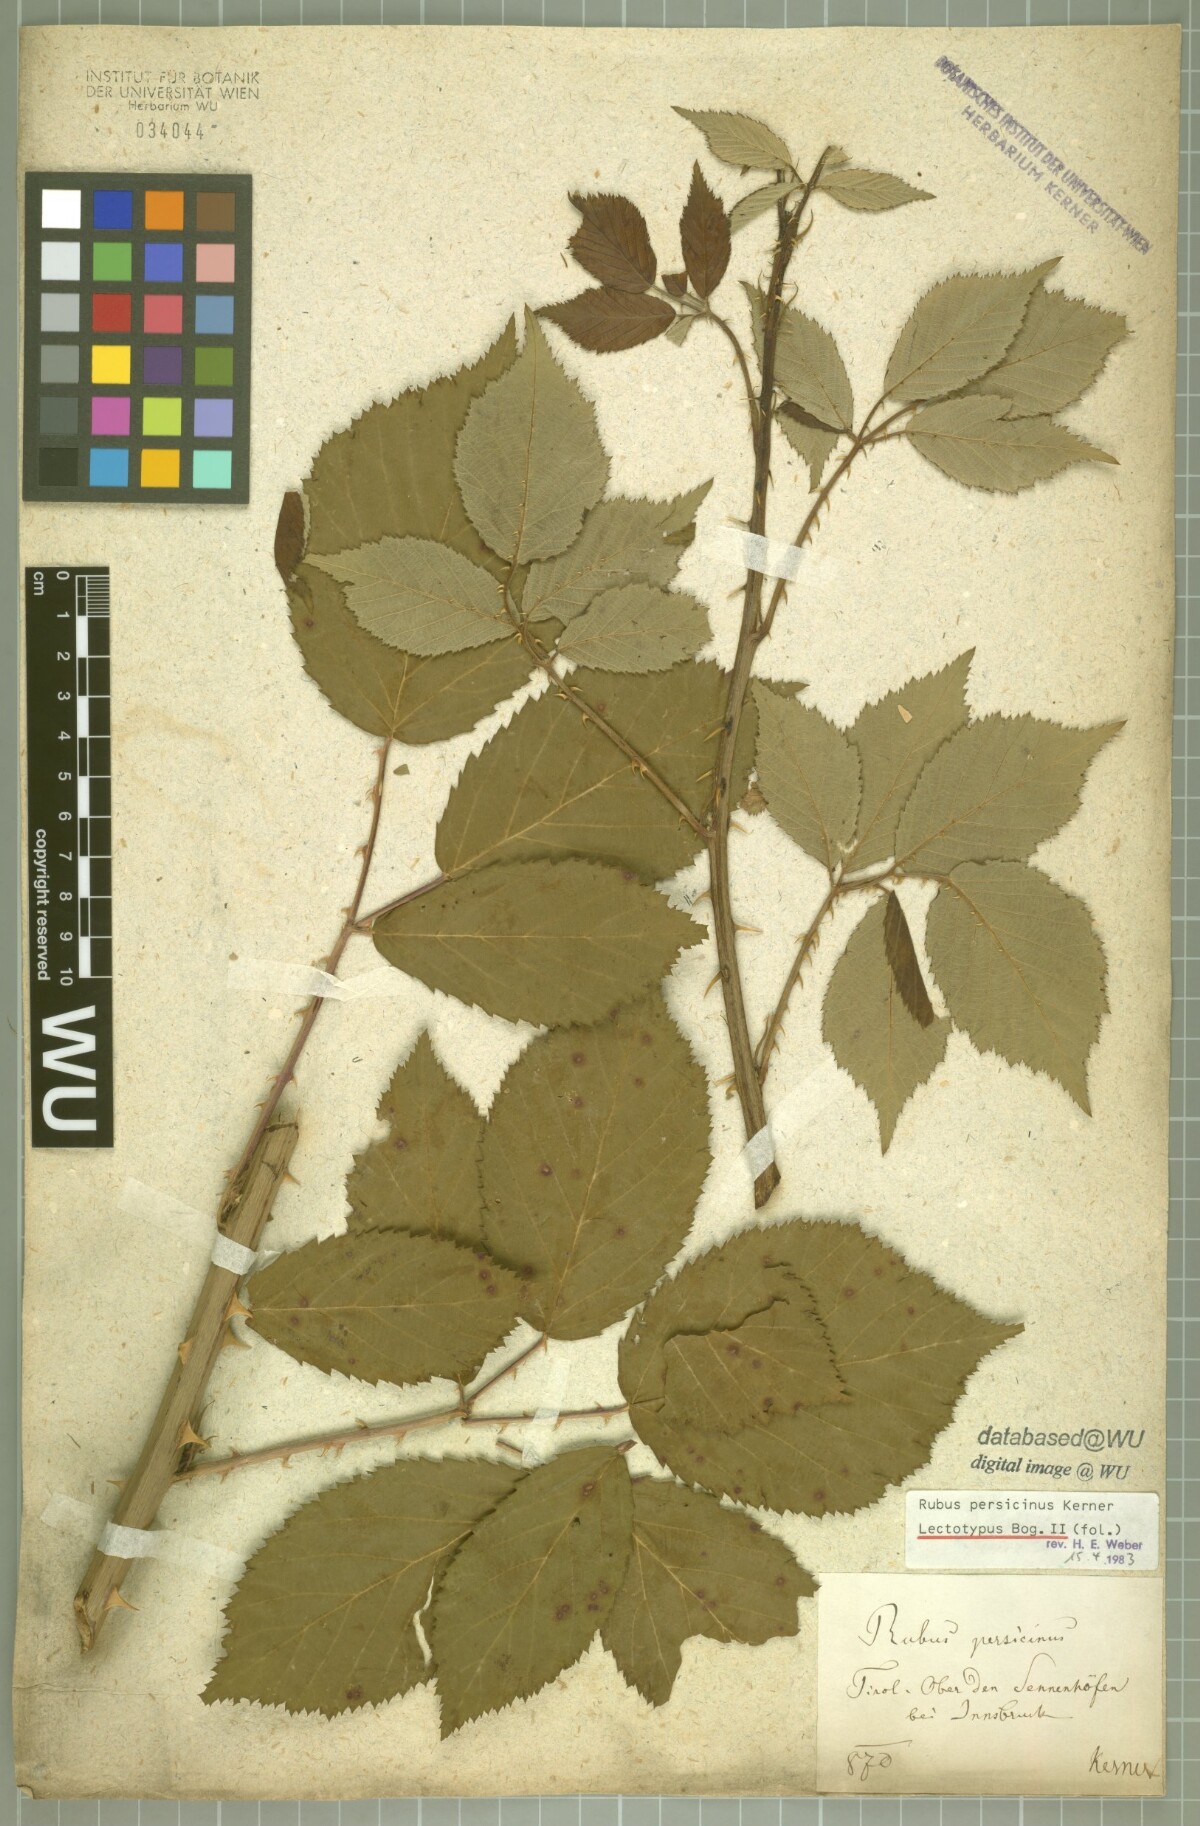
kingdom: Plantae
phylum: Tracheophyta
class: Magnoliopsida
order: Rosales
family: Rosaceae
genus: Rubus
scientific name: Rubus persicinus
